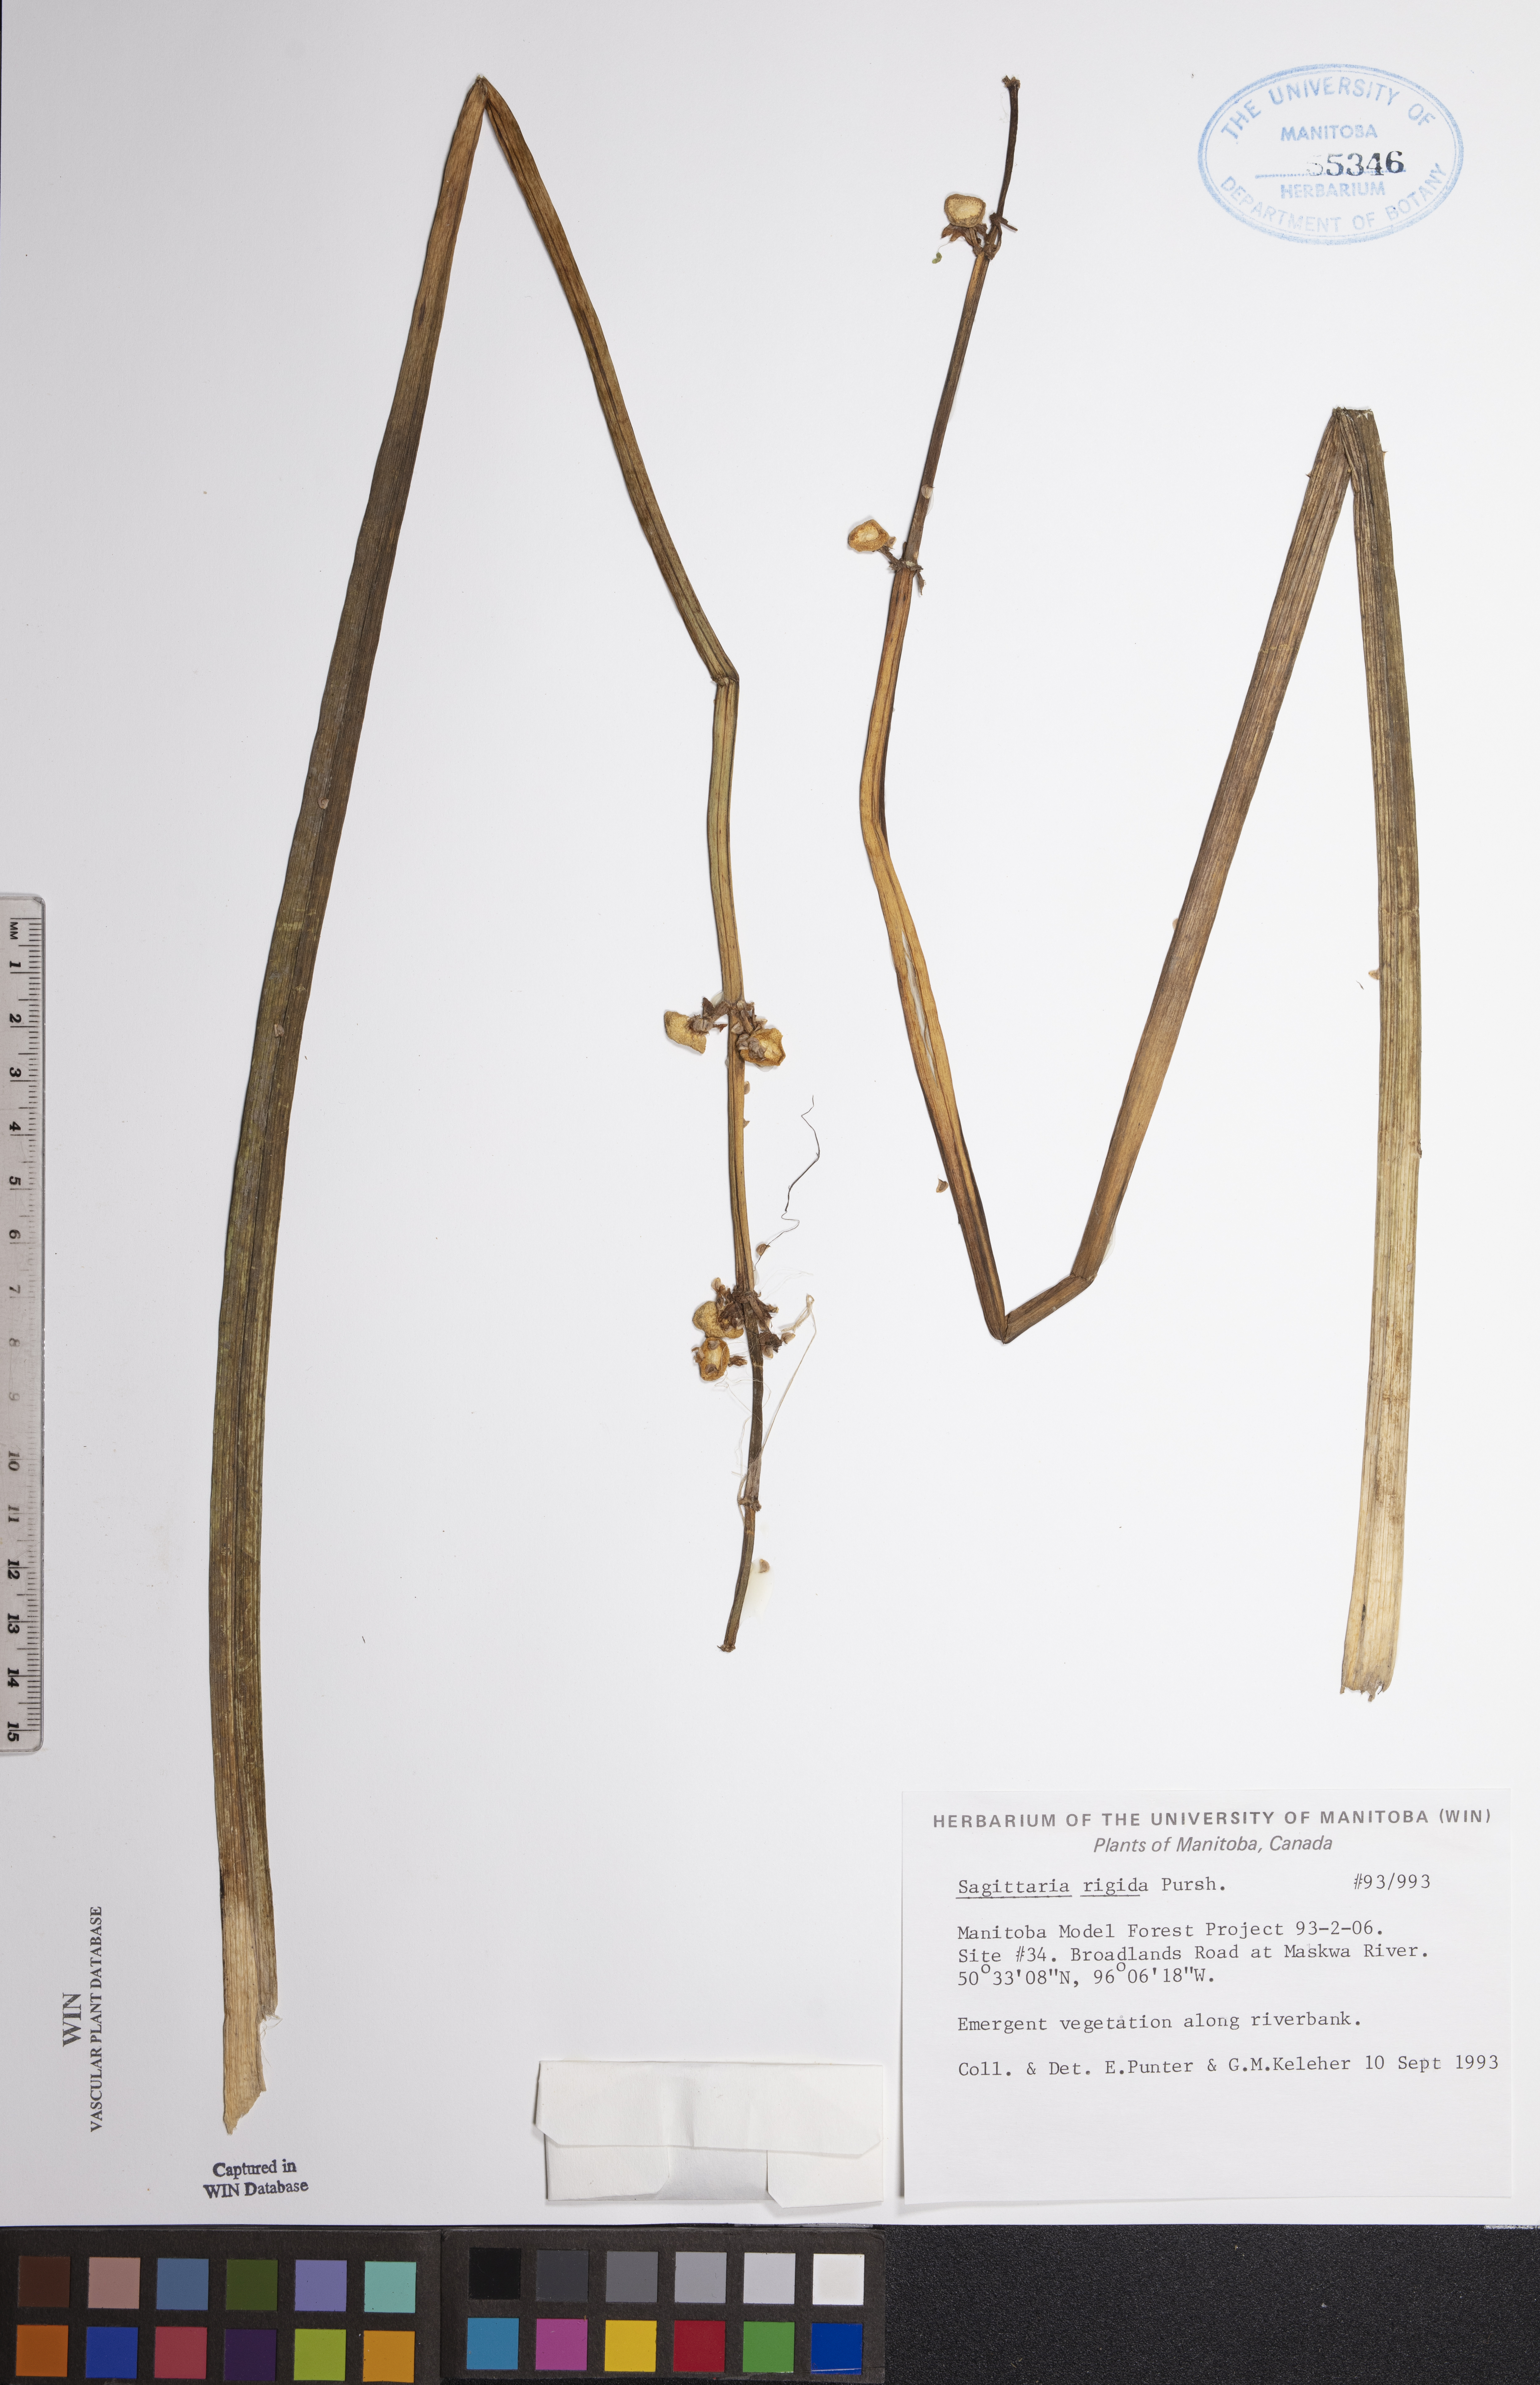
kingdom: Plantae
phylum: Tracheophyta
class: Liliopsida
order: Alismatales
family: Alismataceae
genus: Sagittaria
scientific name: Sagittaria rigida
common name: Canadian arrowhead
